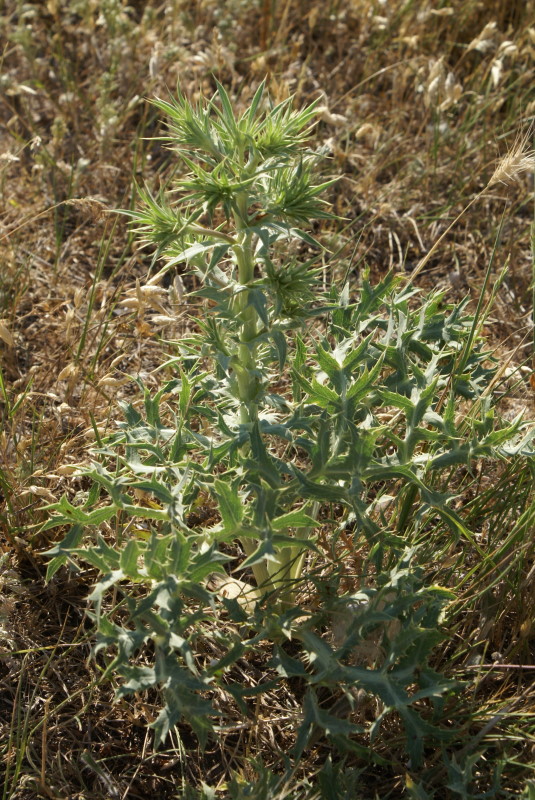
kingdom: Plantae
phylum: Tracheophyta
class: Magnoliopsida
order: Asterales
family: Asteraceae
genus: Carthamus
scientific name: Carthamus lanatus
